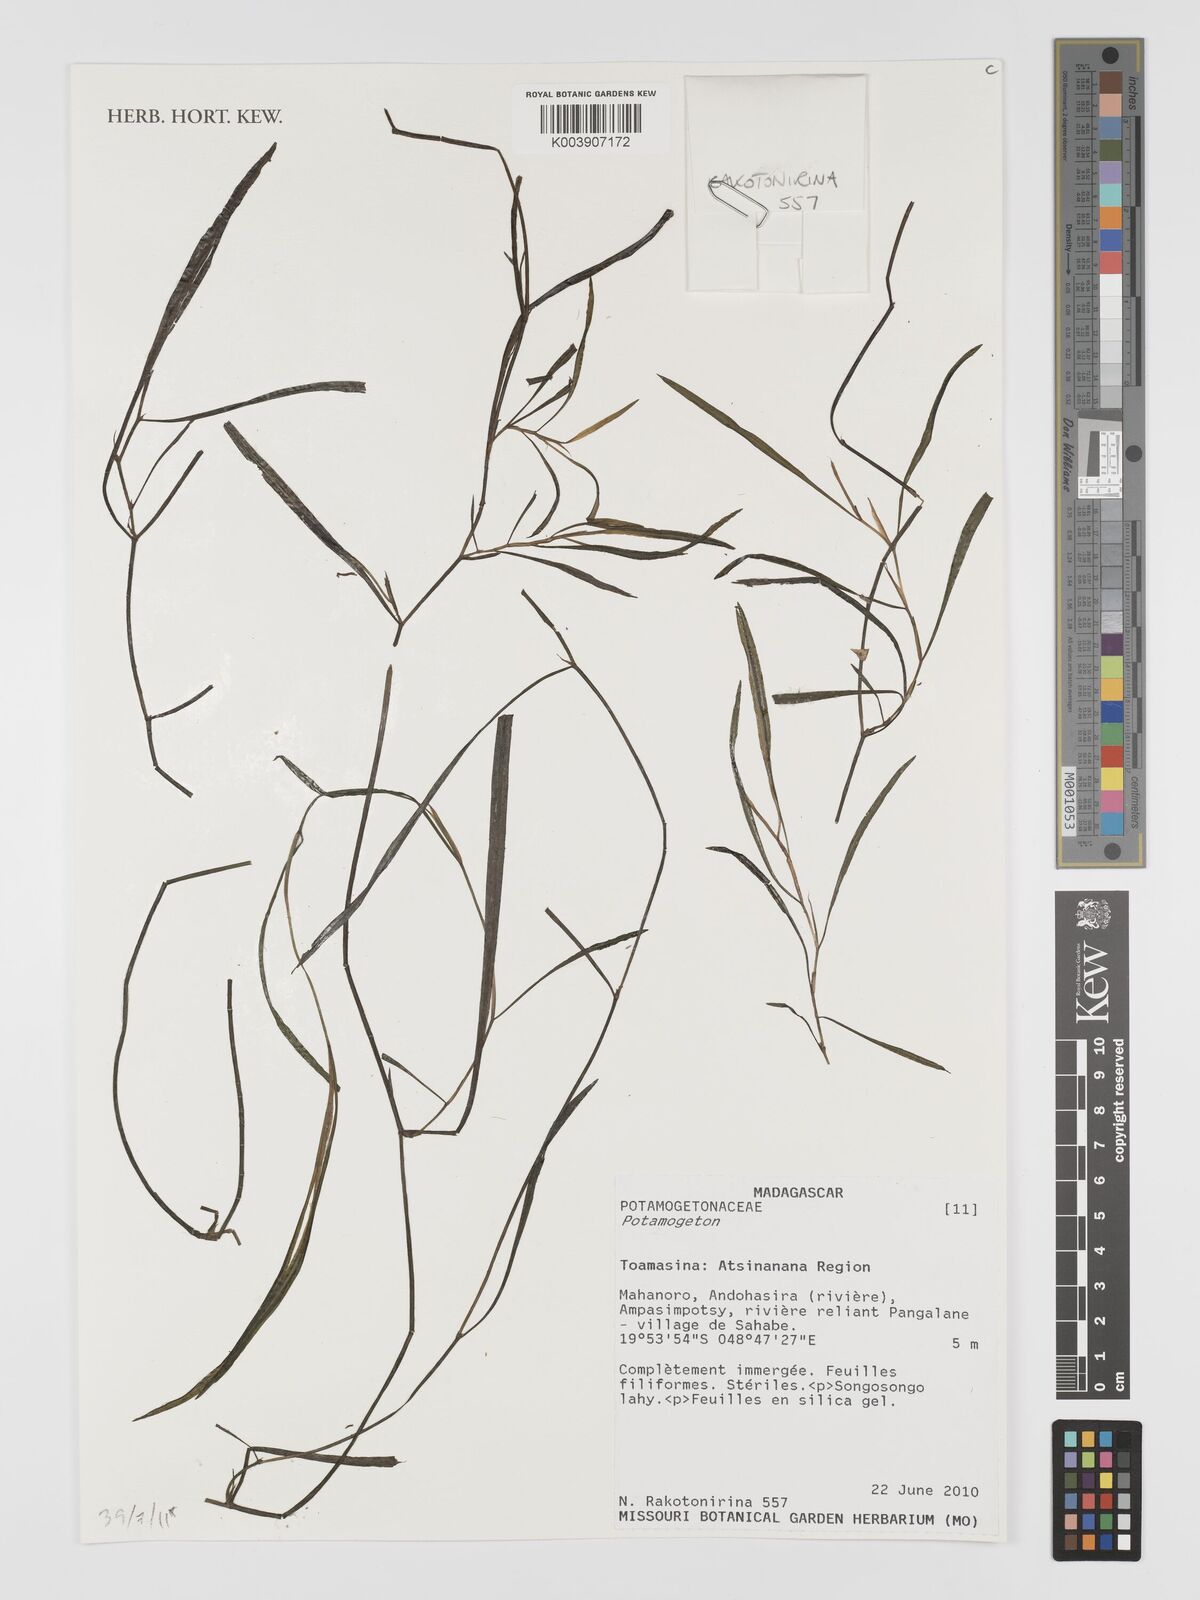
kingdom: Plantae
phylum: Tracheophyta
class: Liliopsida
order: Alismatales
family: Potamogetonaceae
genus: Potamogeton
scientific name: Potamogeton
